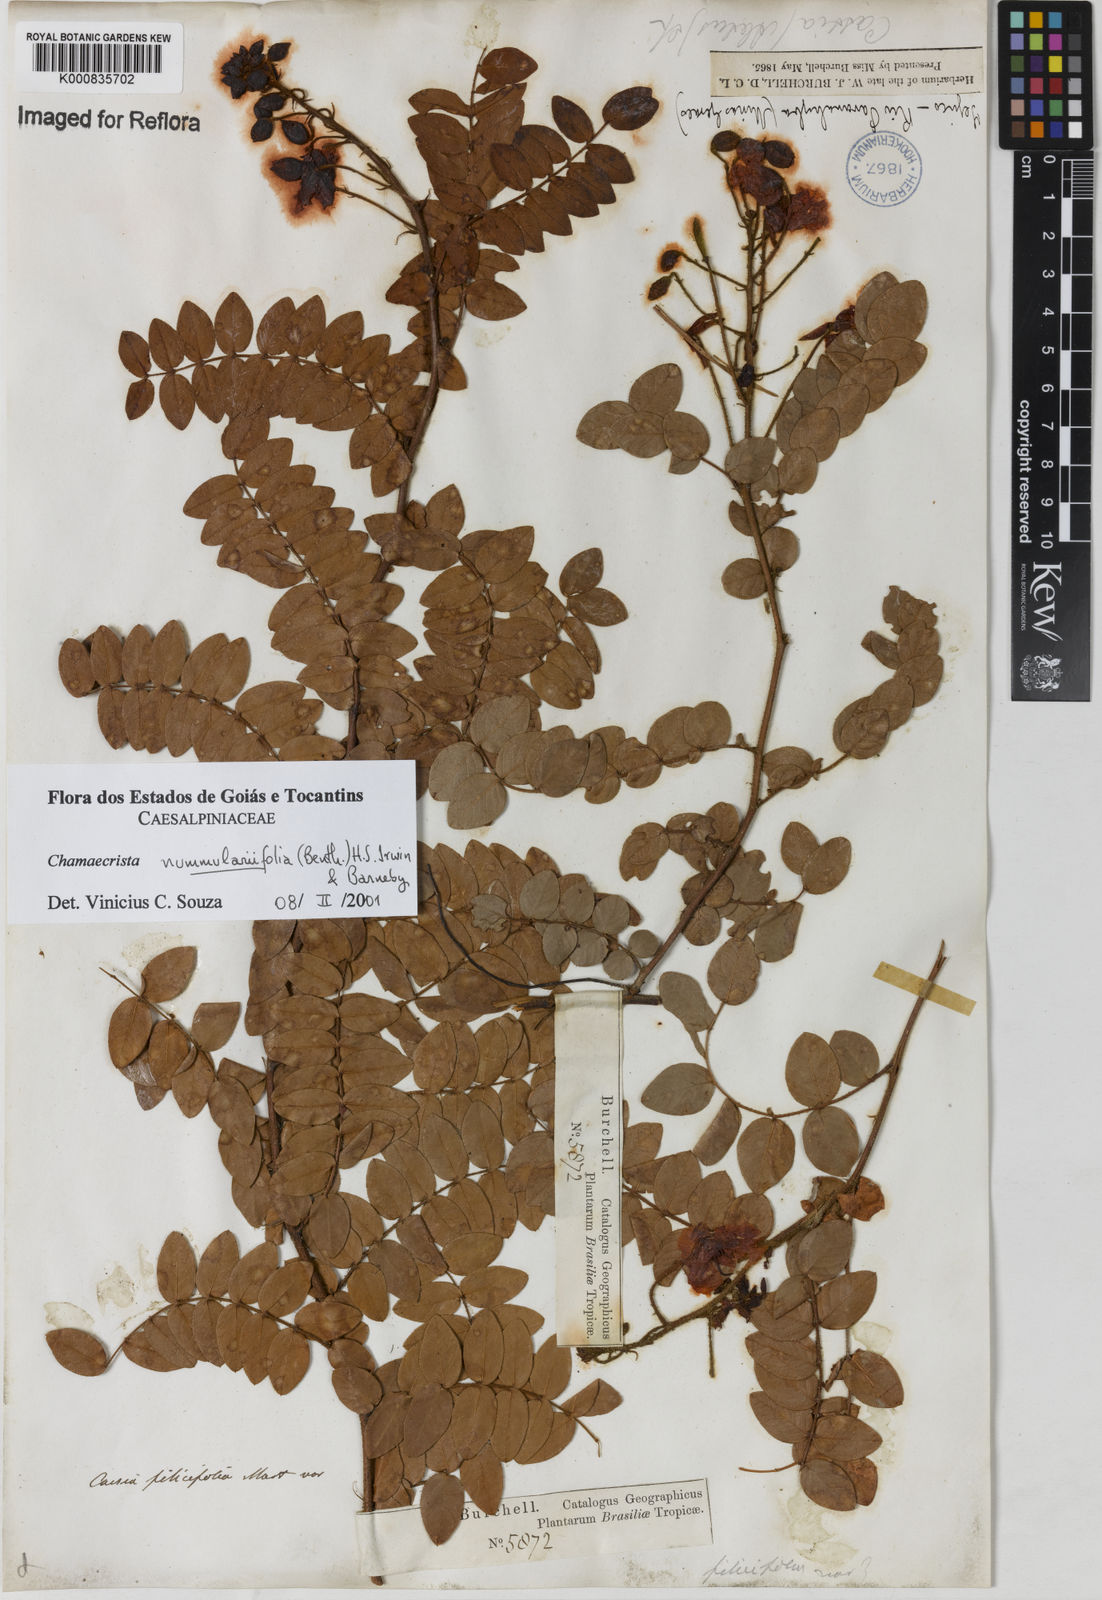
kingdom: Plantae
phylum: Tracheophyta
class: Magnoliopsida
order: Fabales
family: Fabaceae
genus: Chamaecrista
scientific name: Chamaecrista nummulariifolia
